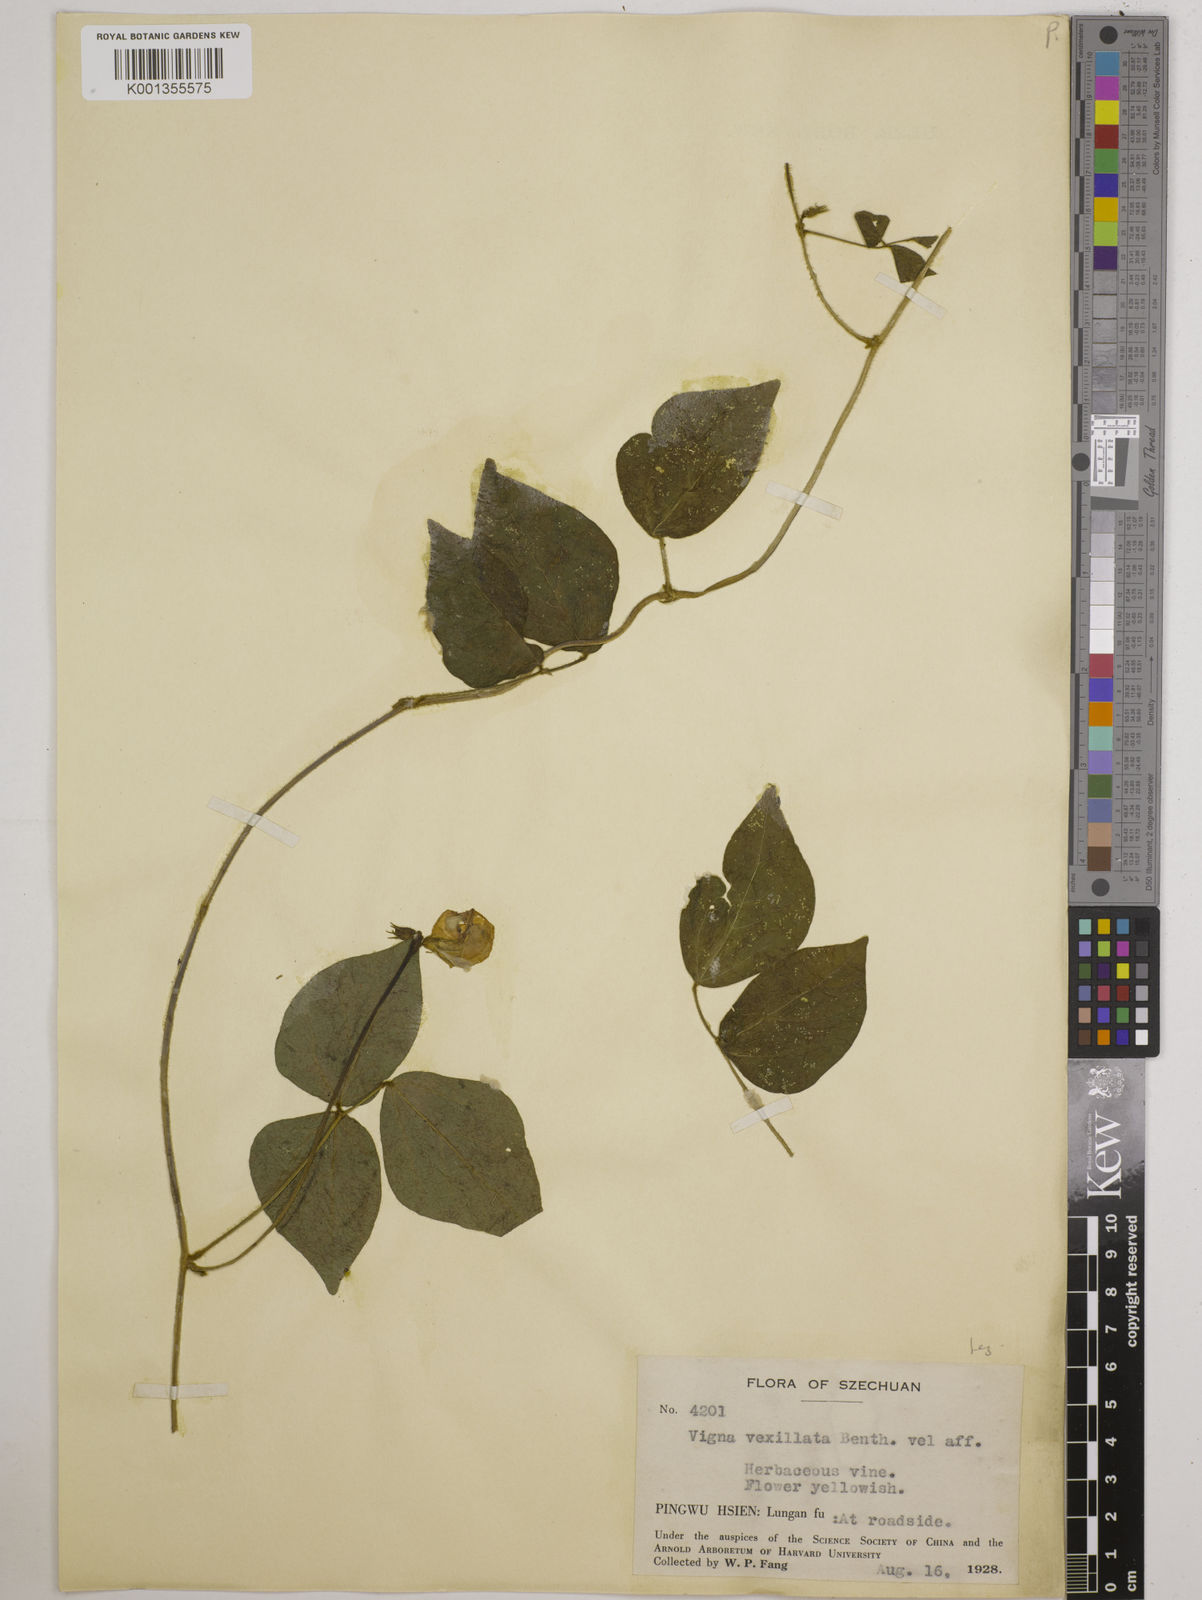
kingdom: Plantae
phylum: Tracheophyta
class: Magnoliopsida
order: Fabales
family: Fabaceae
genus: Vigna
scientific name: Vigna vexillata
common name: Zombi pea
